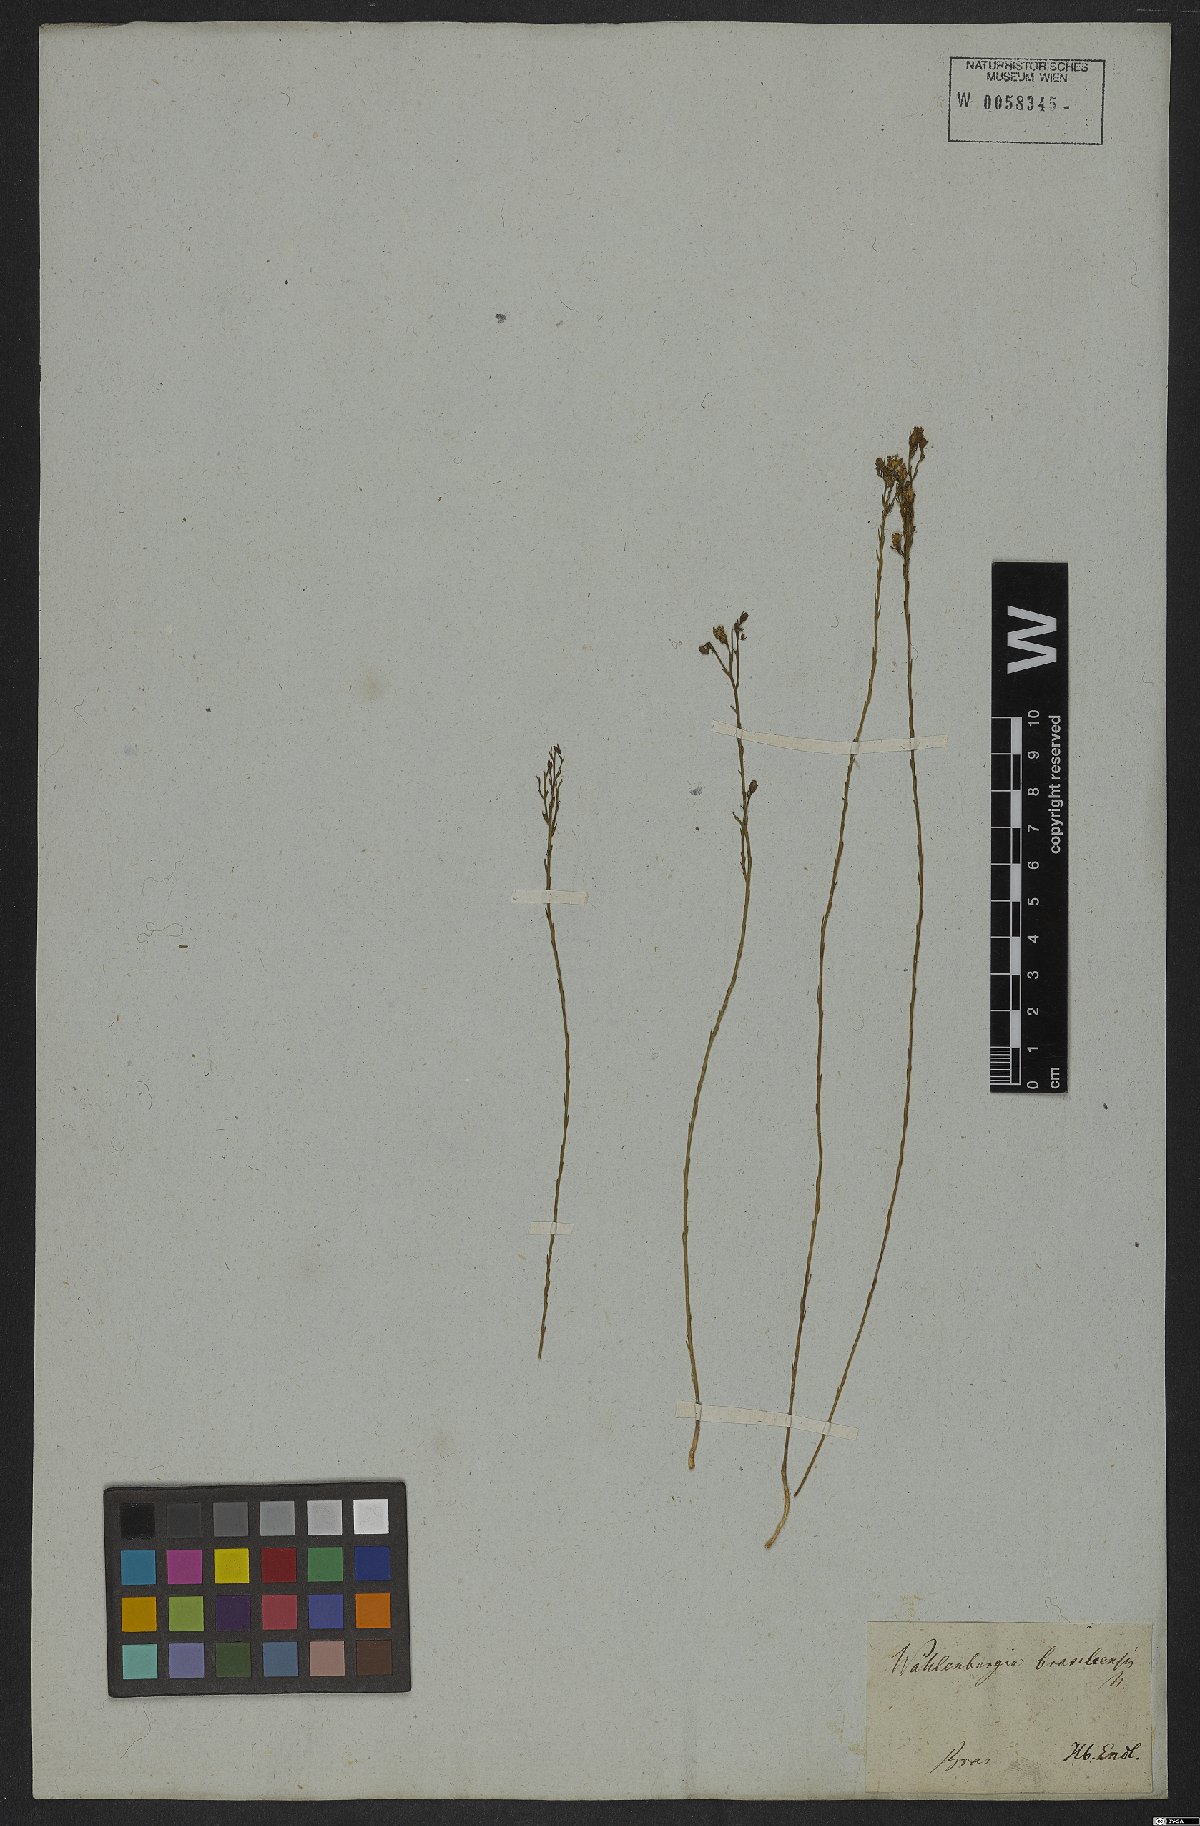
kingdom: Plantae
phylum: Tracheophyta
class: Magnoliopsida
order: Asterales
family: Campanulaceae
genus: Wahlenbergia
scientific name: Wahlenbergia brasiliensis
